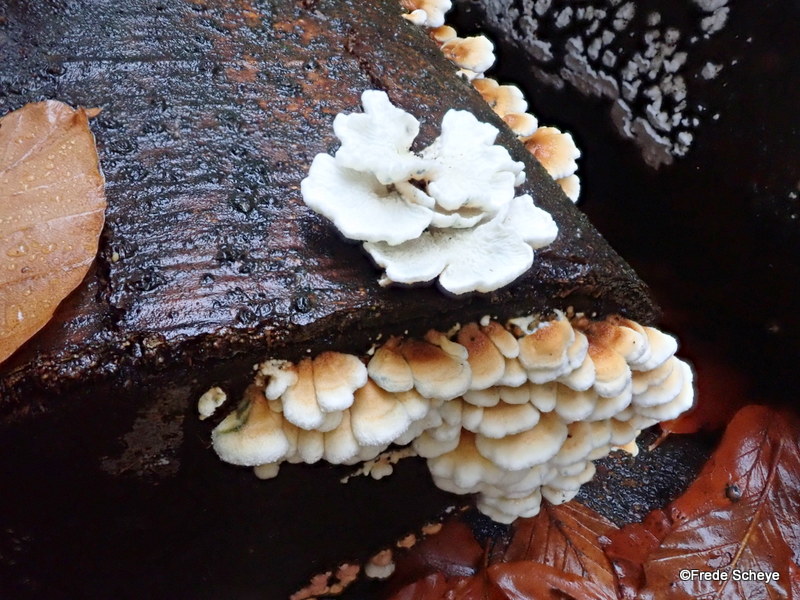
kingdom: Fungi
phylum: Basidiomycota
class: Agaricomycetes
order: Amylocorticiales
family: Amylocorticiaceae
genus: Plicaturopsis
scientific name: Plicaturopsis crispa
